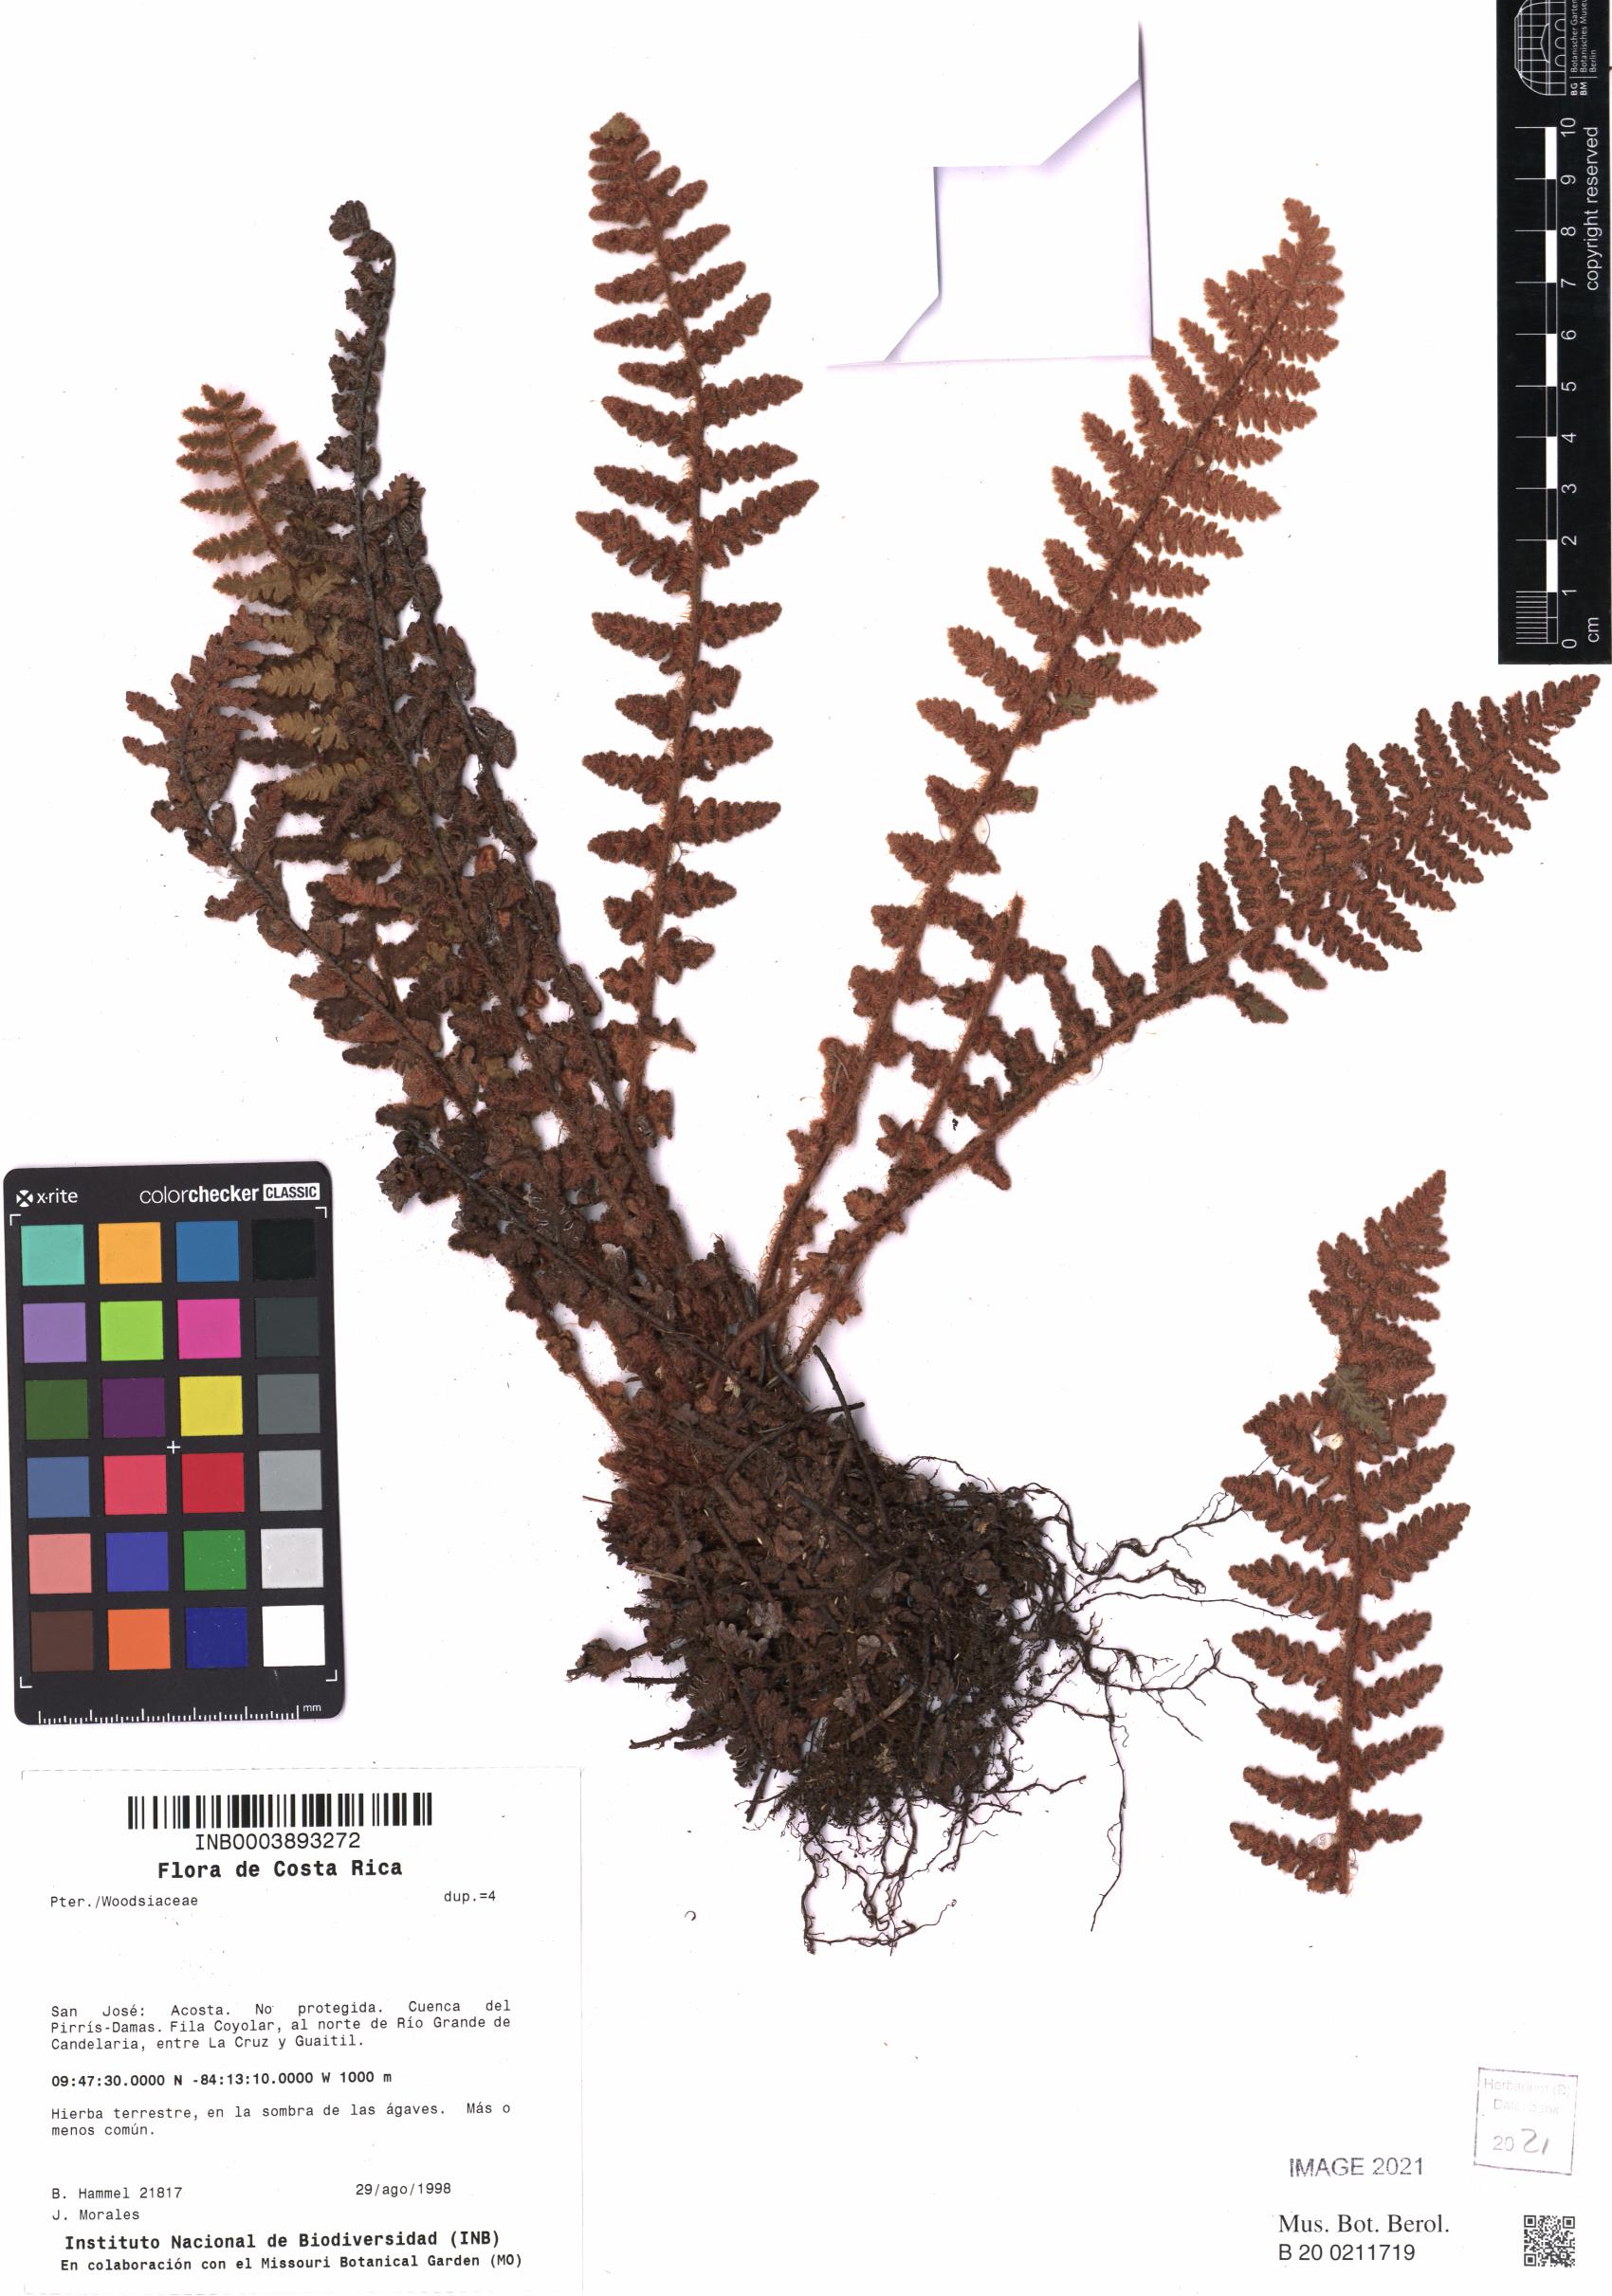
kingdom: Plantae
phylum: Tracheophyta
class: Polypodiopsida
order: Polypodiales
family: Pteridaceae
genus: Notholaena
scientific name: Notholaena brachypus
